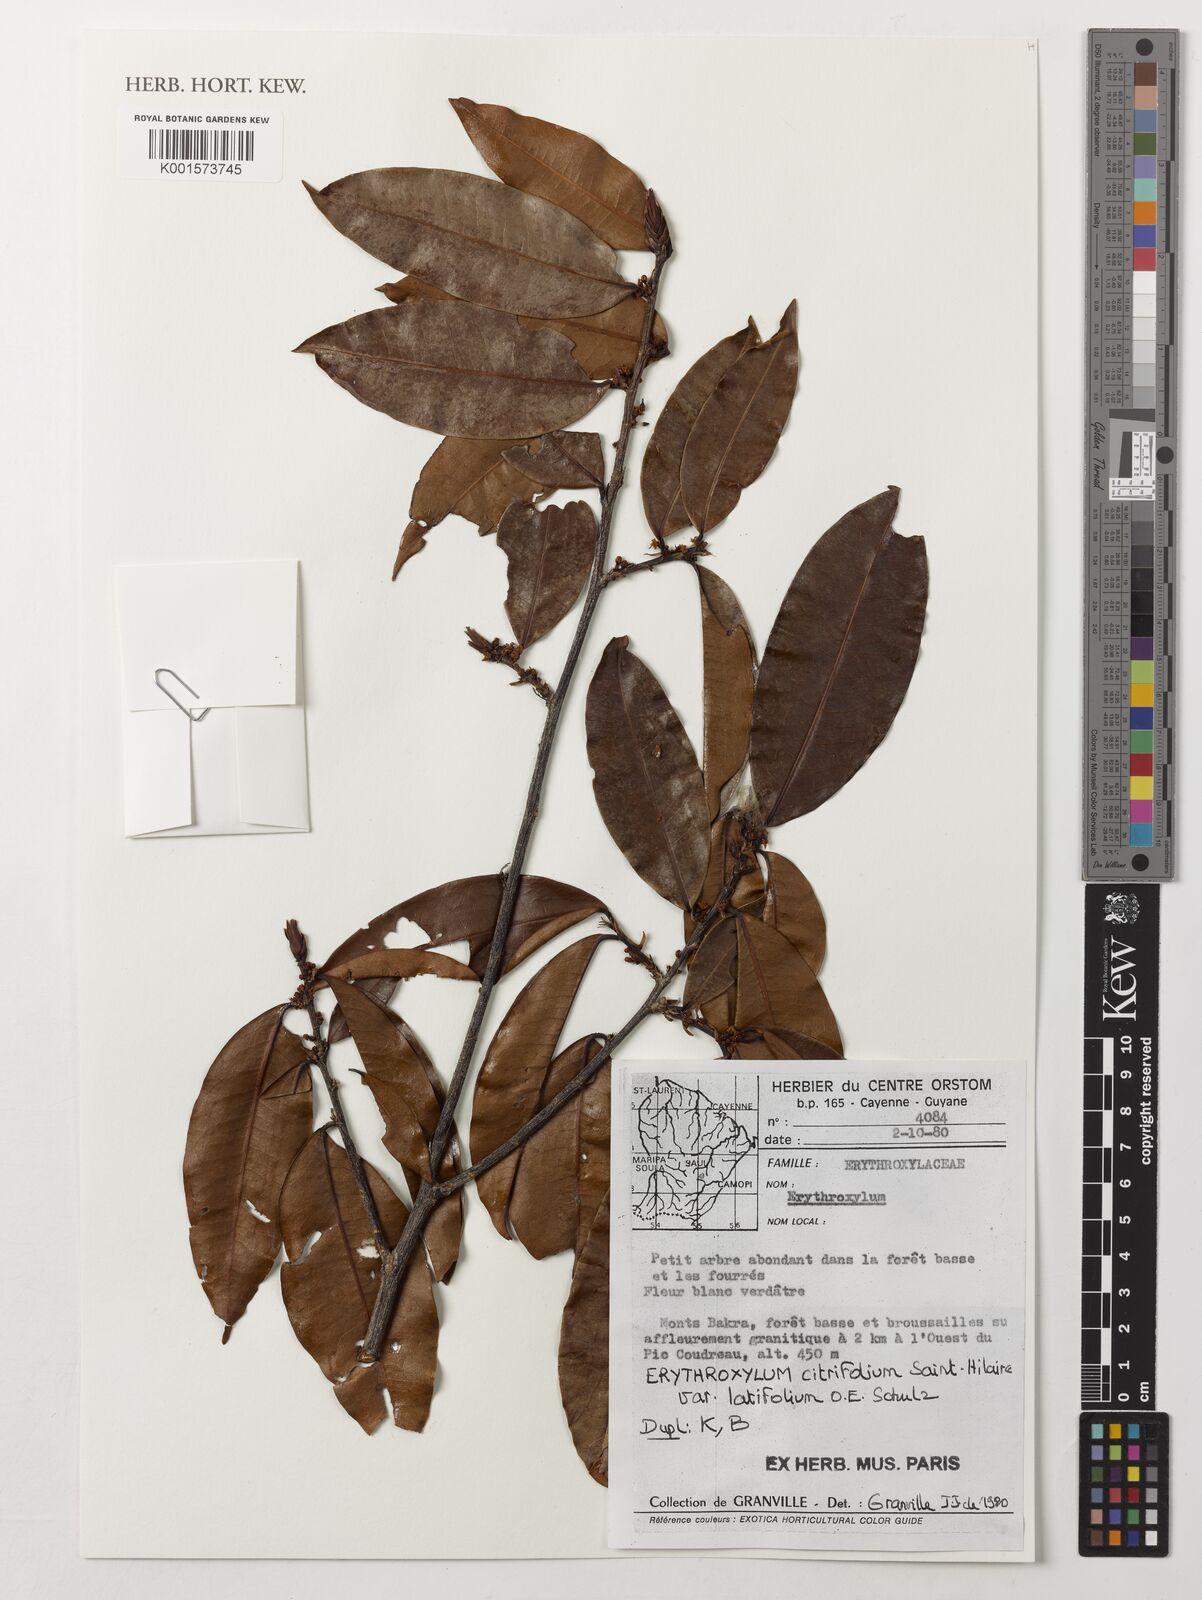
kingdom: Plantae
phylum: Tracheophyta
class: Magnoliopsida
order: Malpighiales
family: Erythroxylaceae
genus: Erythroxylum
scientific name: Erythroxylum citrifolium
